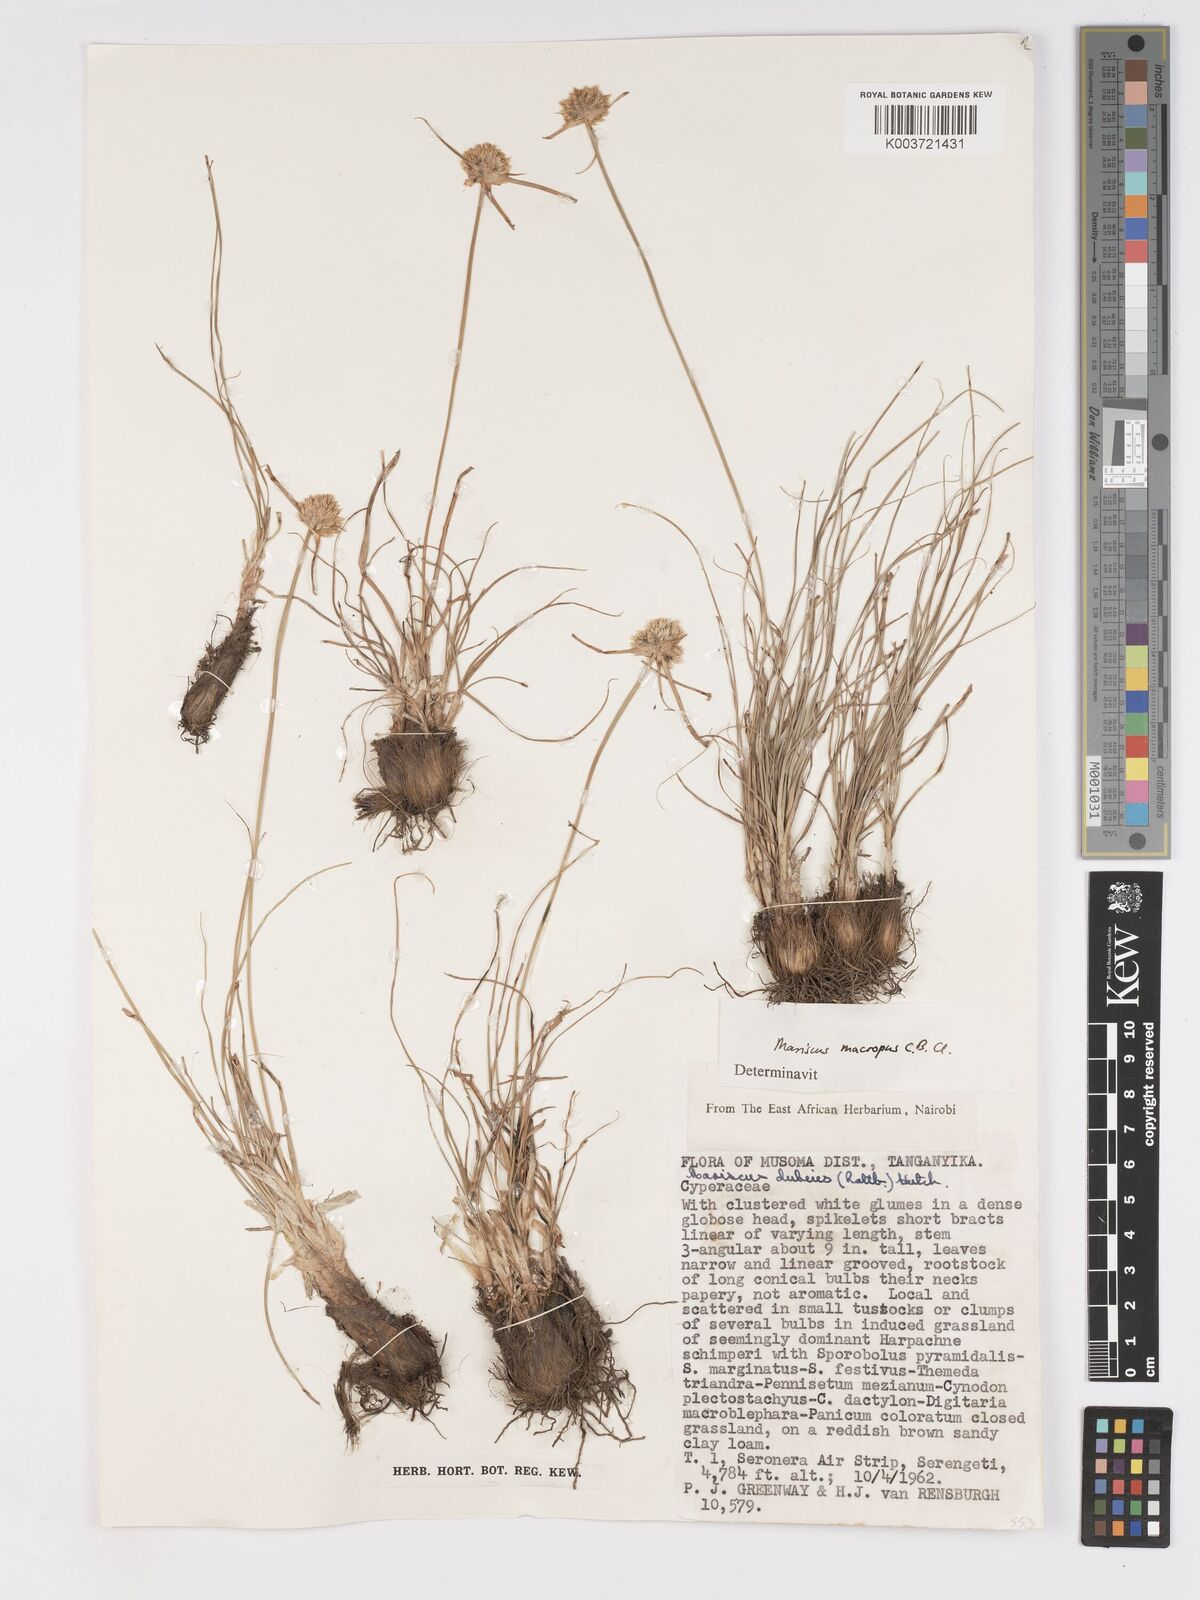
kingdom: Plantae
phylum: Tracheophyta
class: Liliopsida
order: Poales
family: Cyperaceae
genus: Cyperus
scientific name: Cyperus mollipes
